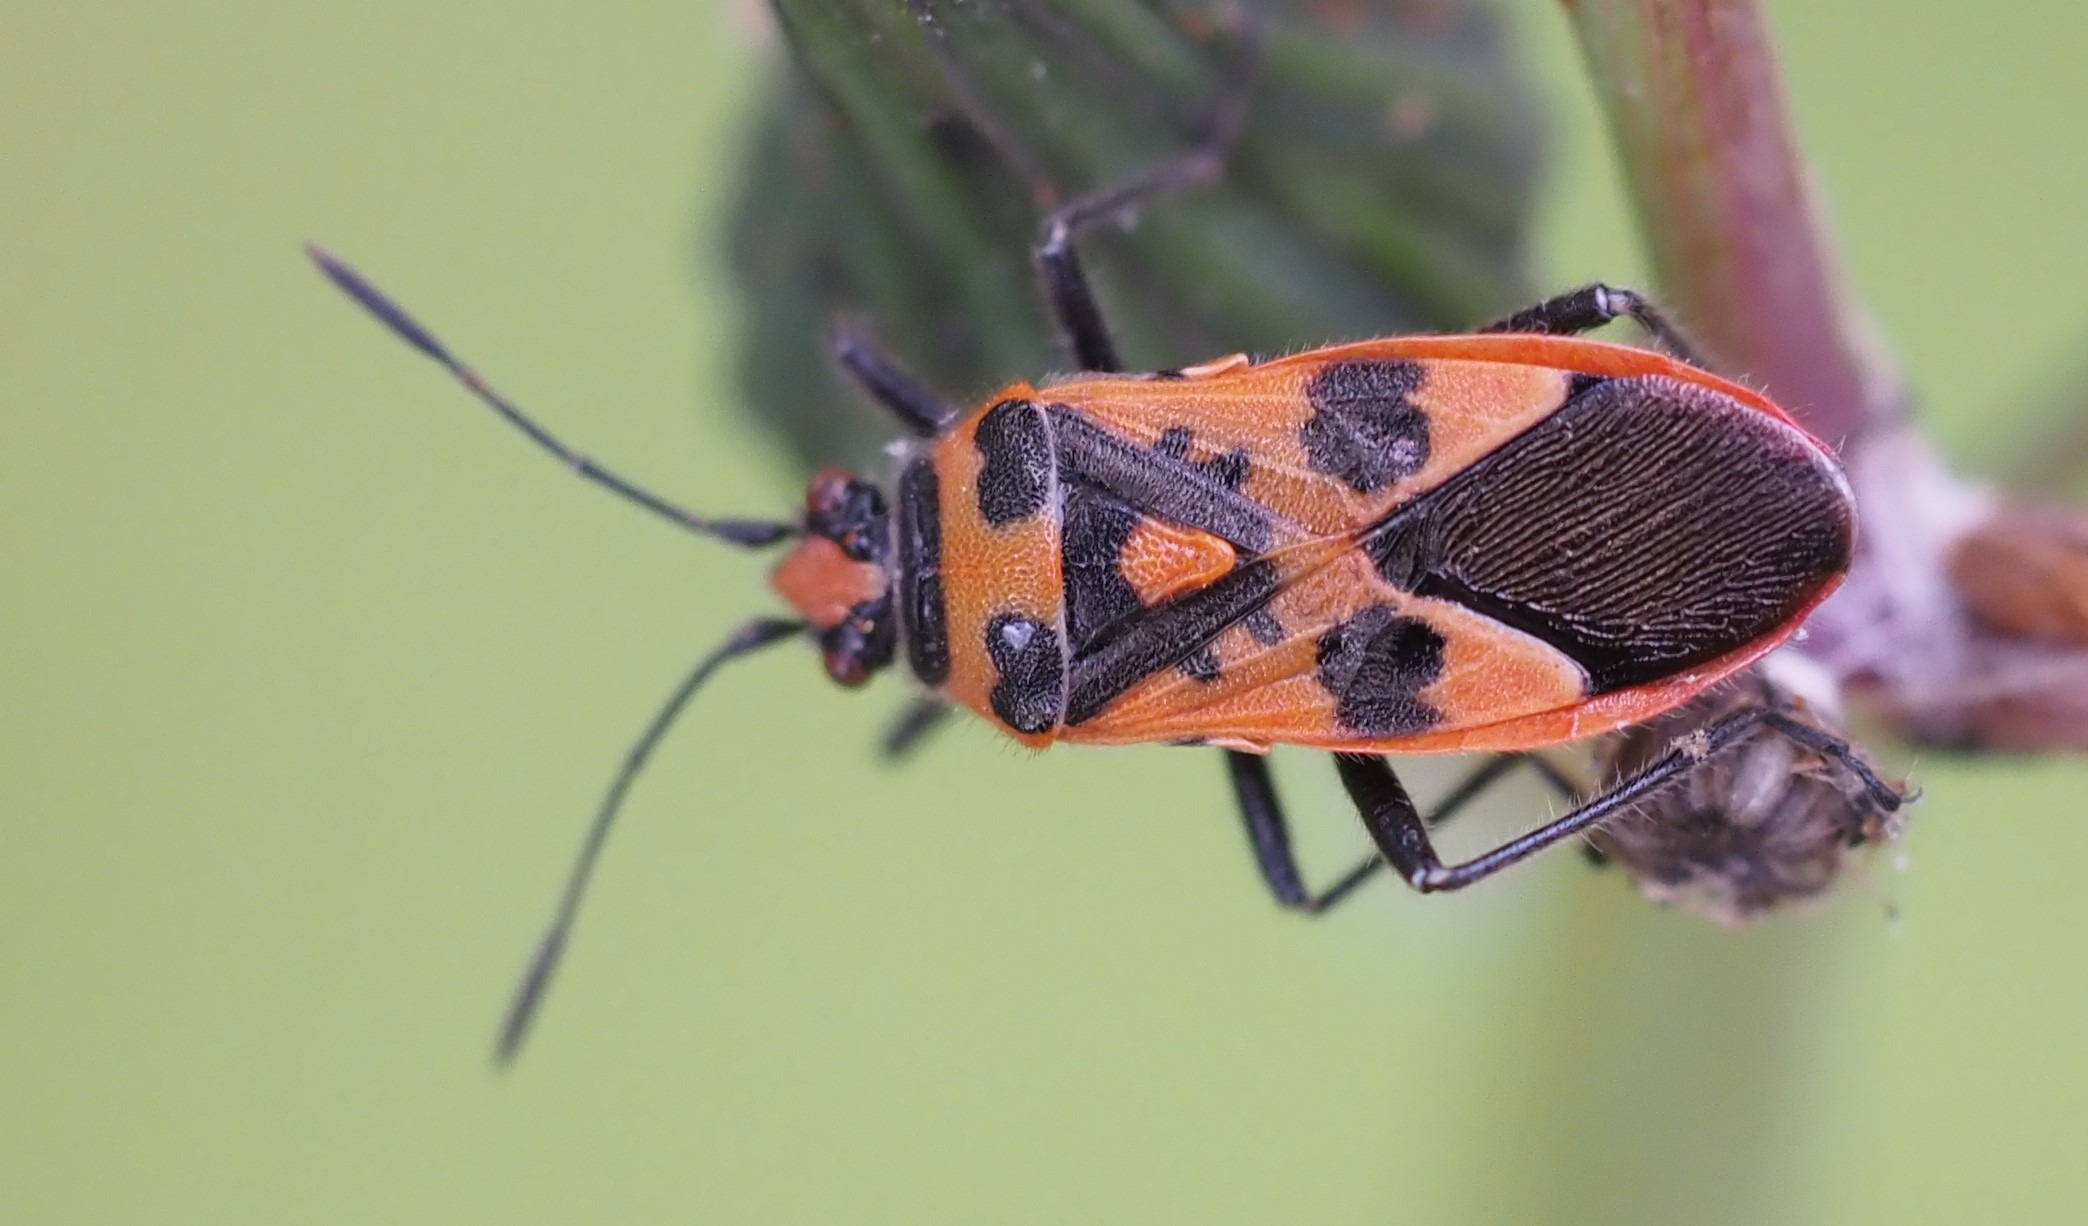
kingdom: Animalia
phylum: Arthropoda
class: Insecta
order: Hemiptera
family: Rhopalidae
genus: Corizus
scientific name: Corizus hyoscyami
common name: Rød kanttæge
